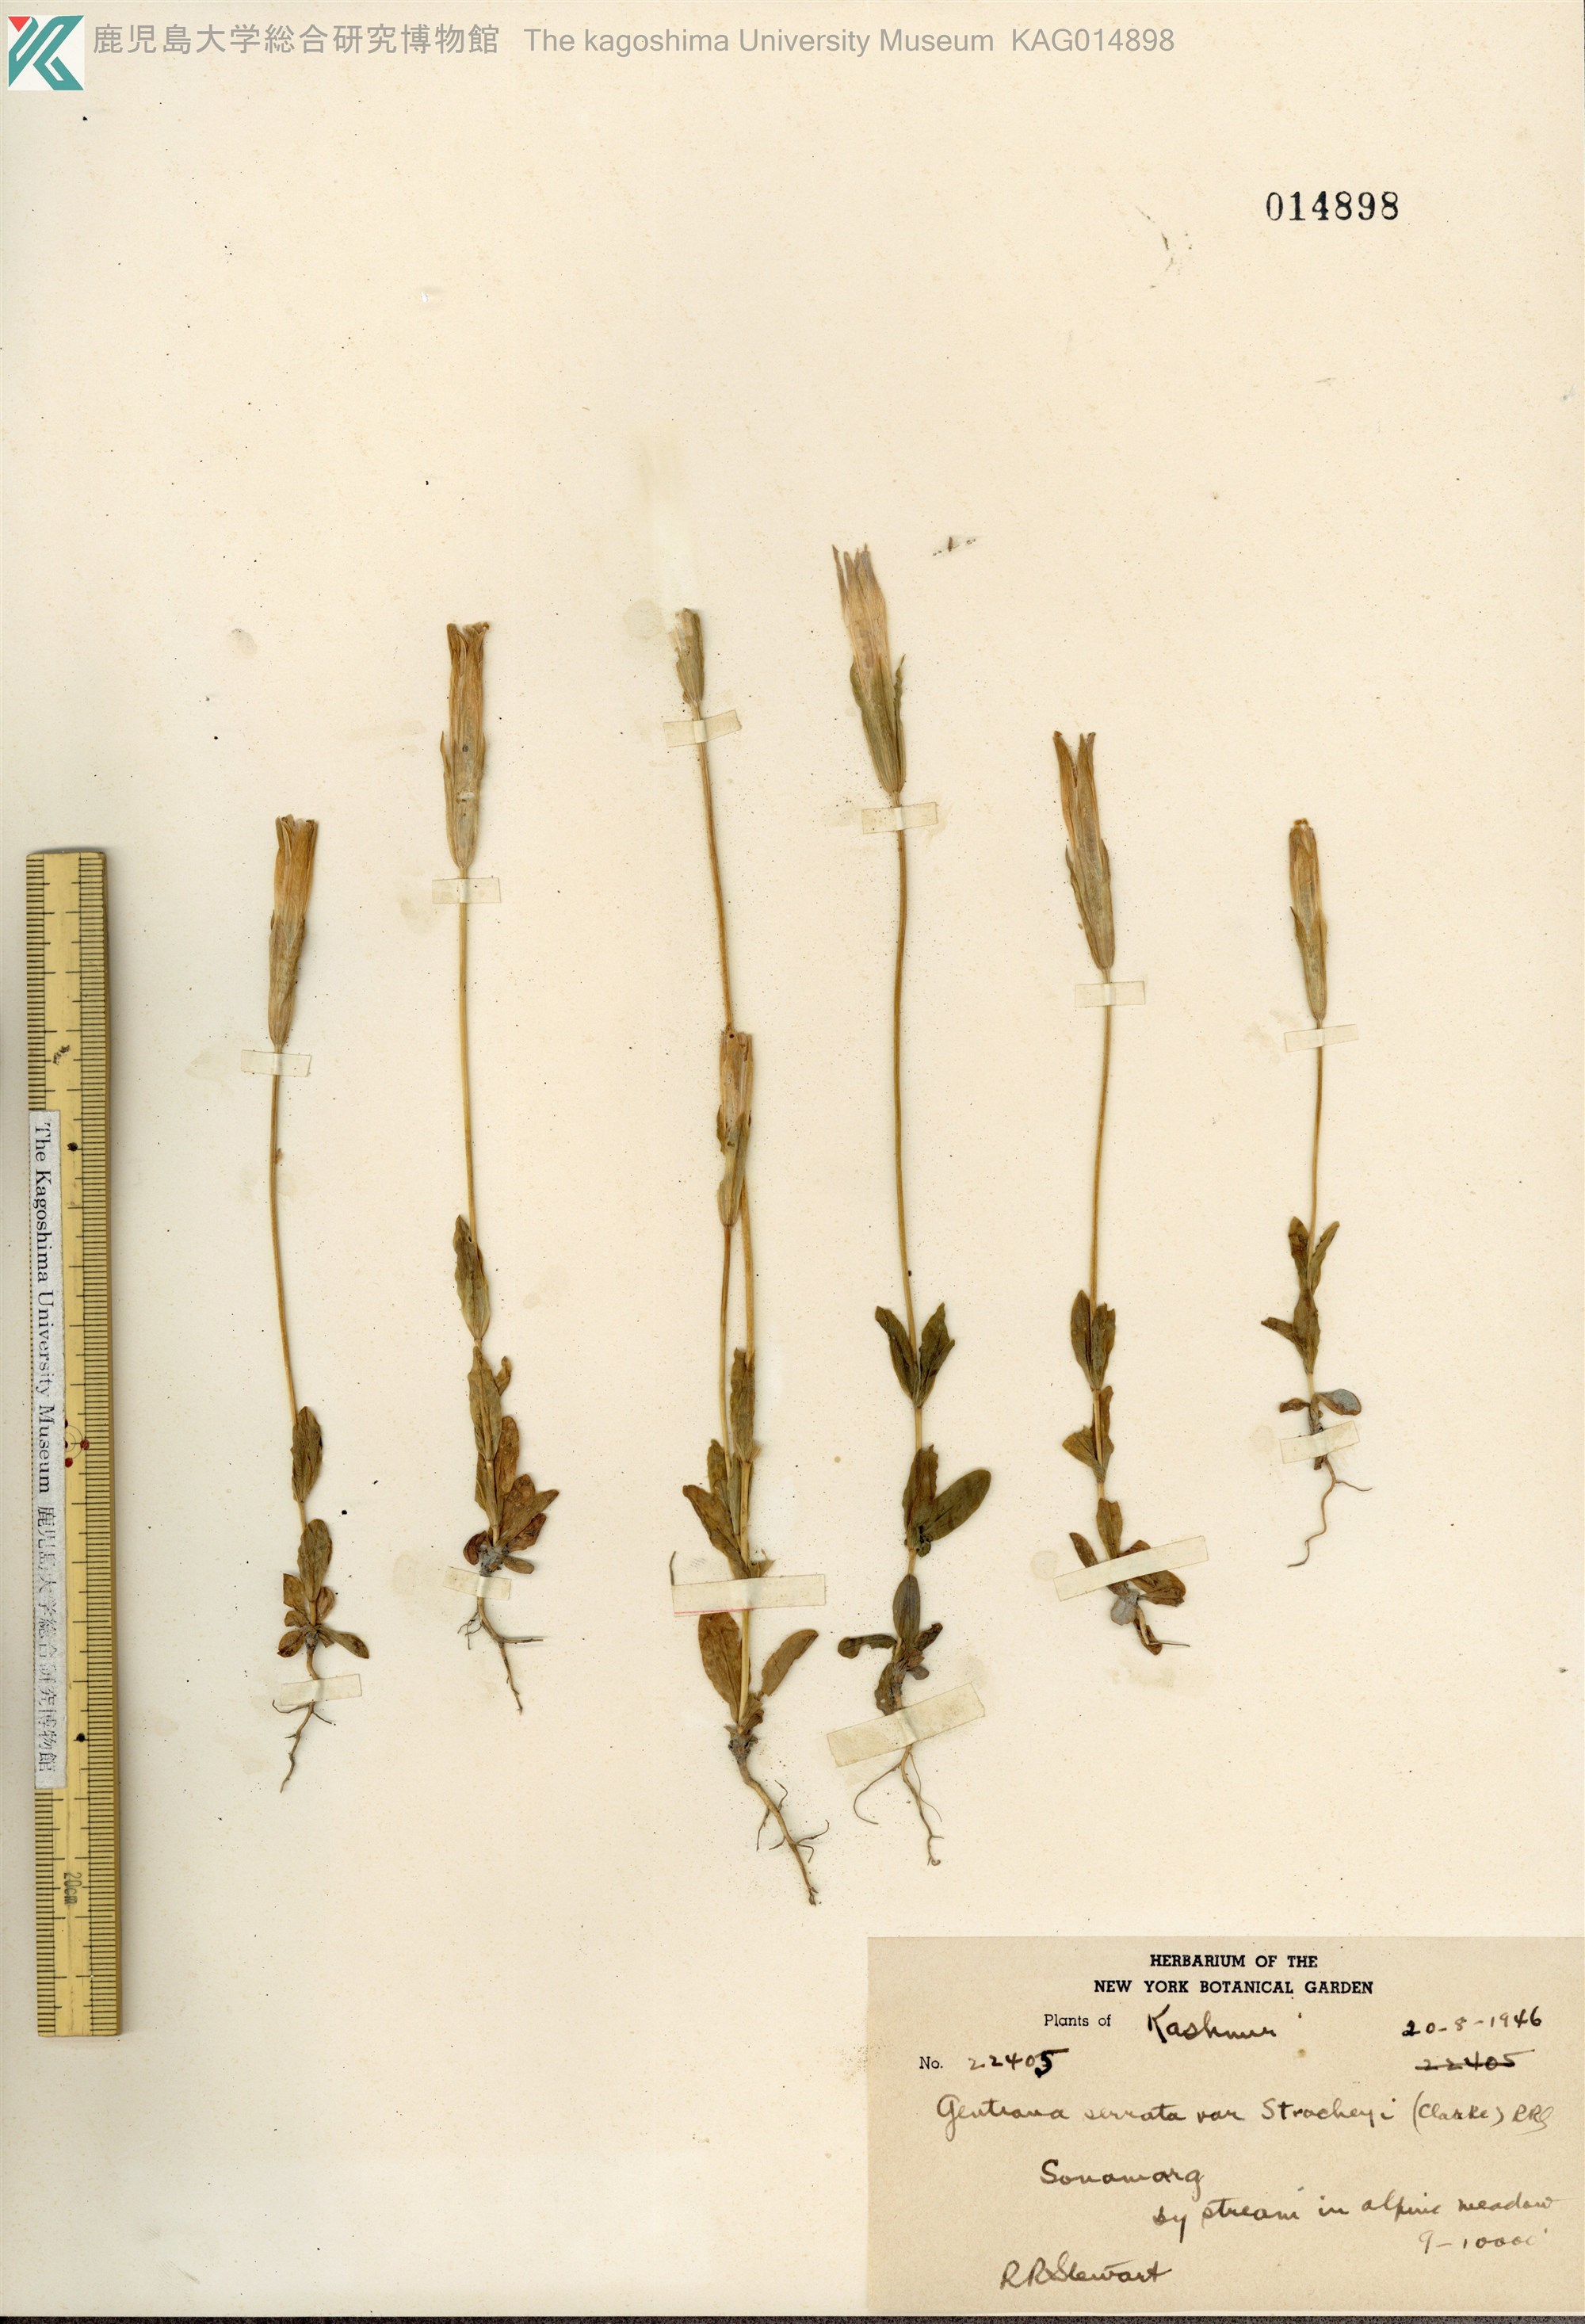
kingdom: Plantae
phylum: Tracheophyta
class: Magnoliopsida
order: Gentianales
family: Gentianaceae
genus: Gentianopsis
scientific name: Gentianopsis detonsa
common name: Fringed-gentian
